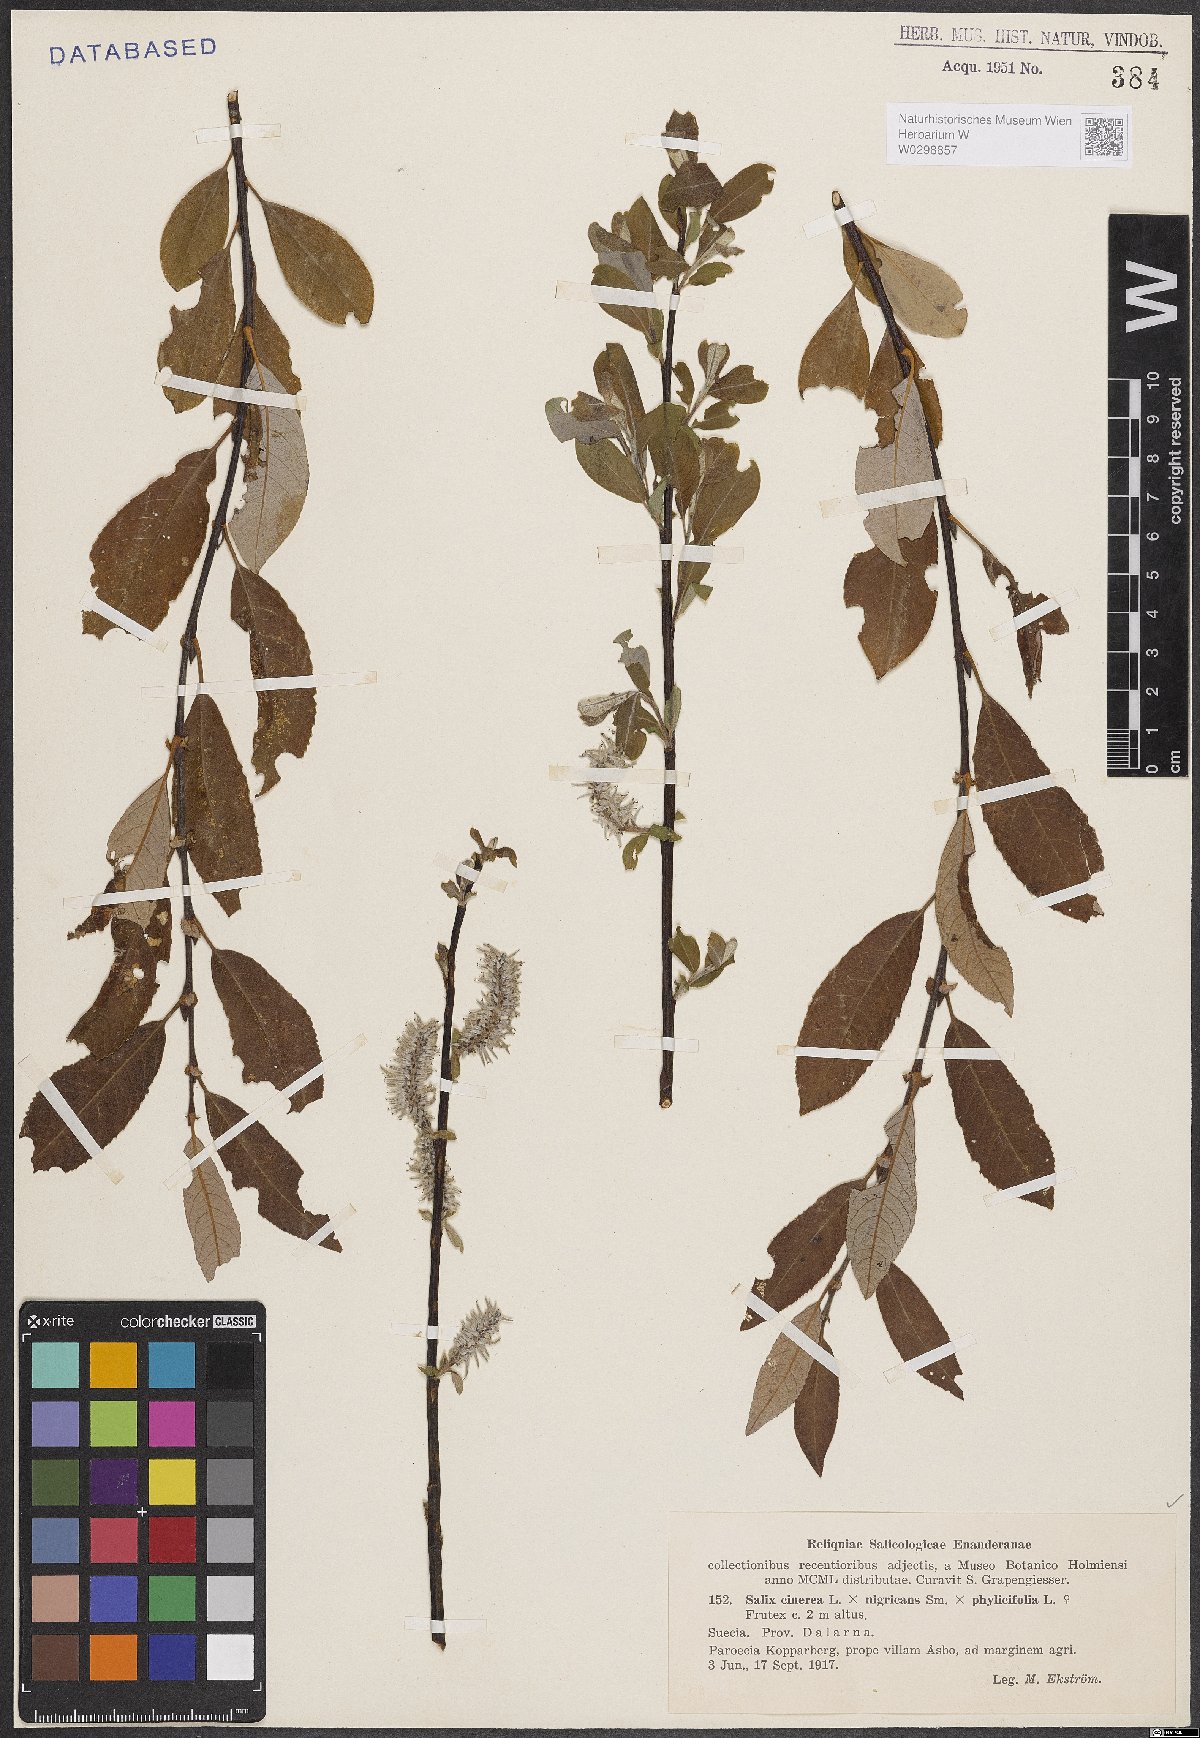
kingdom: Plantae
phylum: Tracheophyta
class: Magnoliopsida
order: Malpighiales
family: Salicaceae
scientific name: Salicaceae
